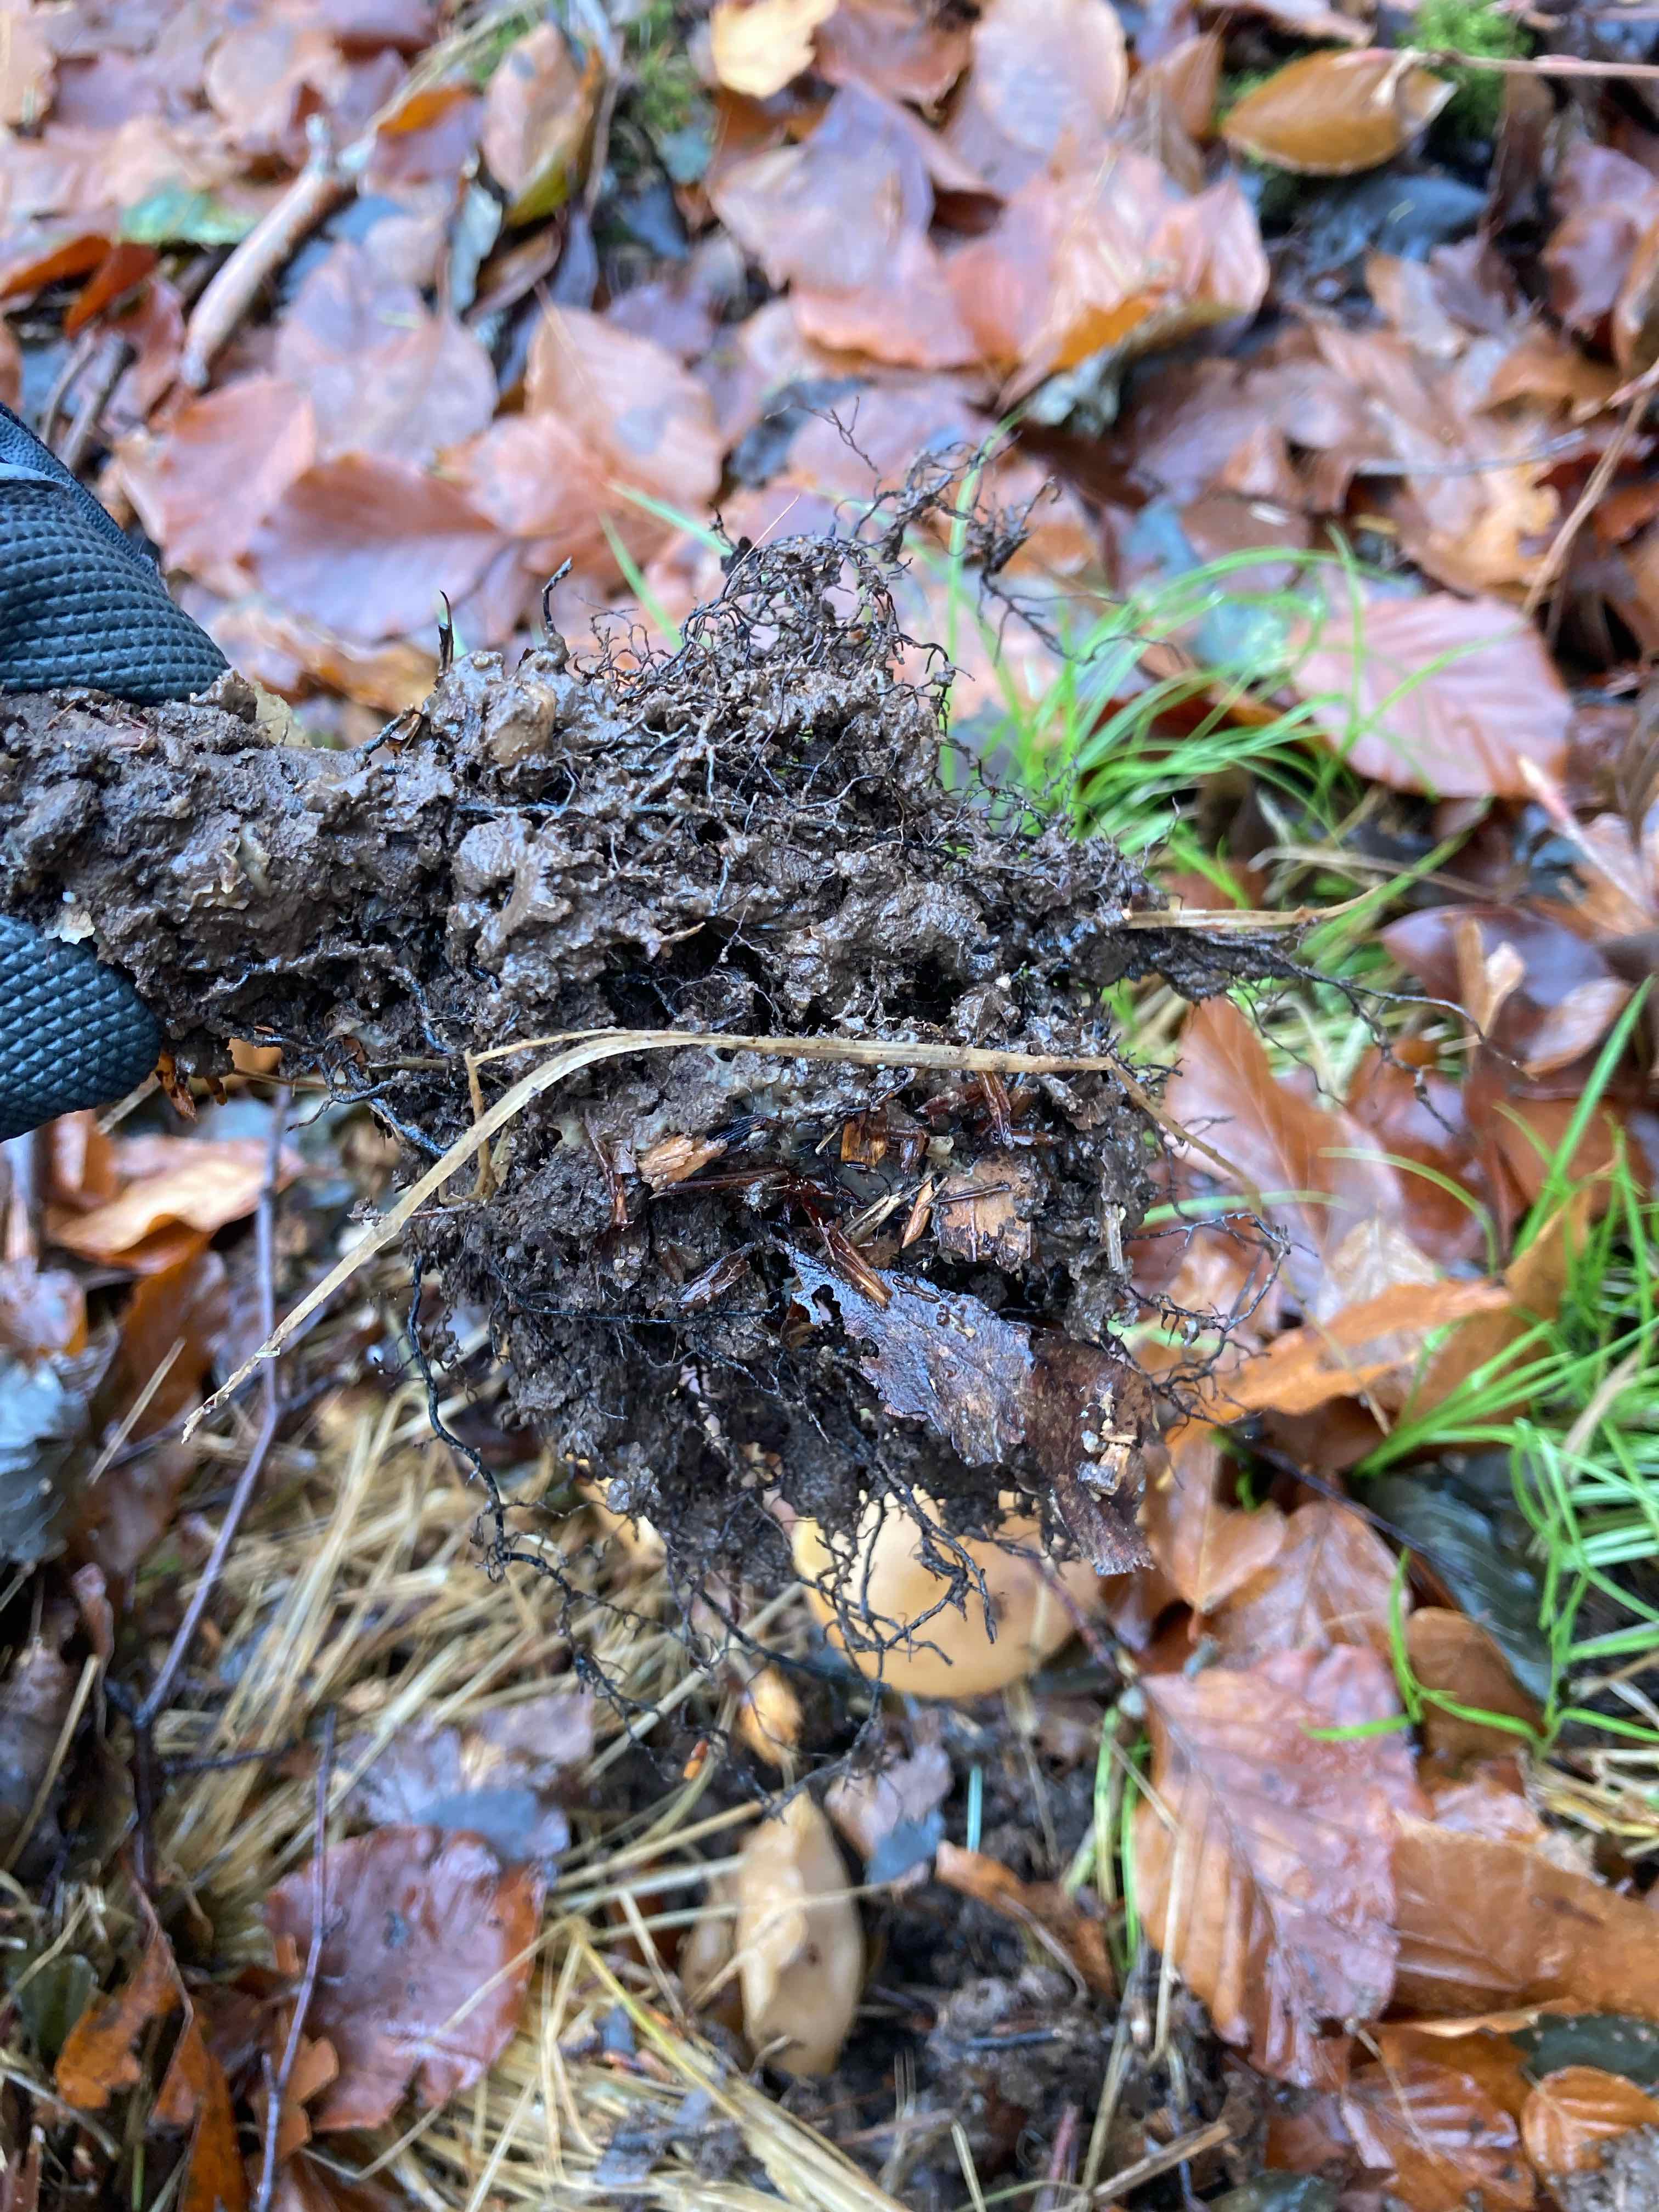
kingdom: Fungi
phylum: Ascomycota
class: Pezizomycetes
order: Pezizales
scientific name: Pezizales
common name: bægersvampordenen
